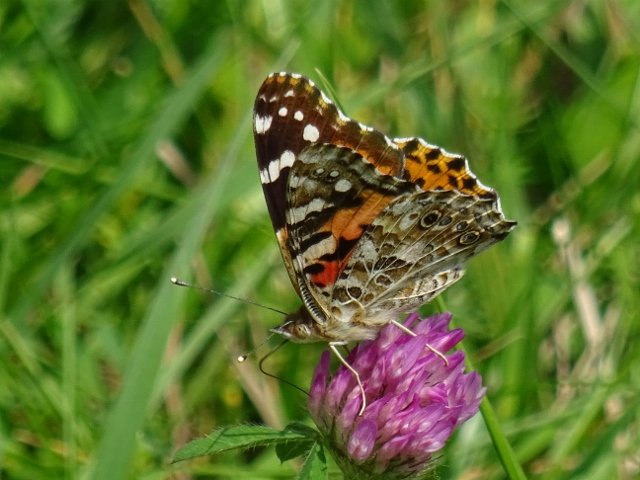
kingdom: Animalia
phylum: Arthropoda
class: Insecta
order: Lepidoptera
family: Nymphalidae
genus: Vanessa
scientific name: Vanessa cardui
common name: Painted Lady
